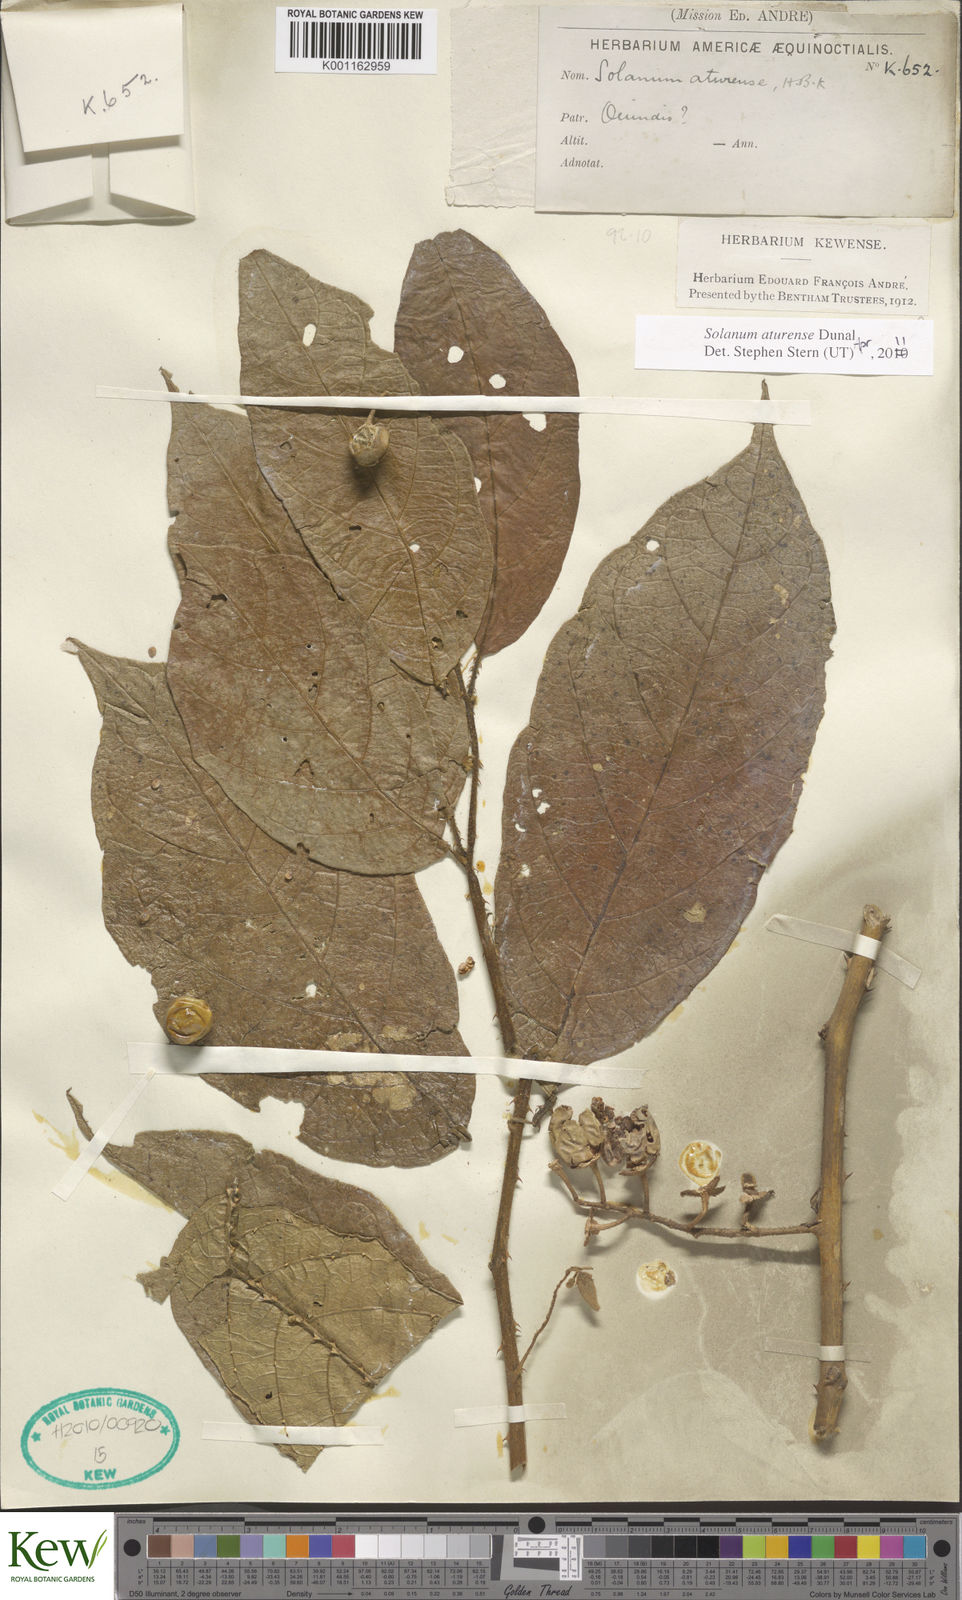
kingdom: Plantae
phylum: Tracheophyta
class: Magnoliopsida
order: Solanales
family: Solanaceae
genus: Solanum
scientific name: Solanum aturense
